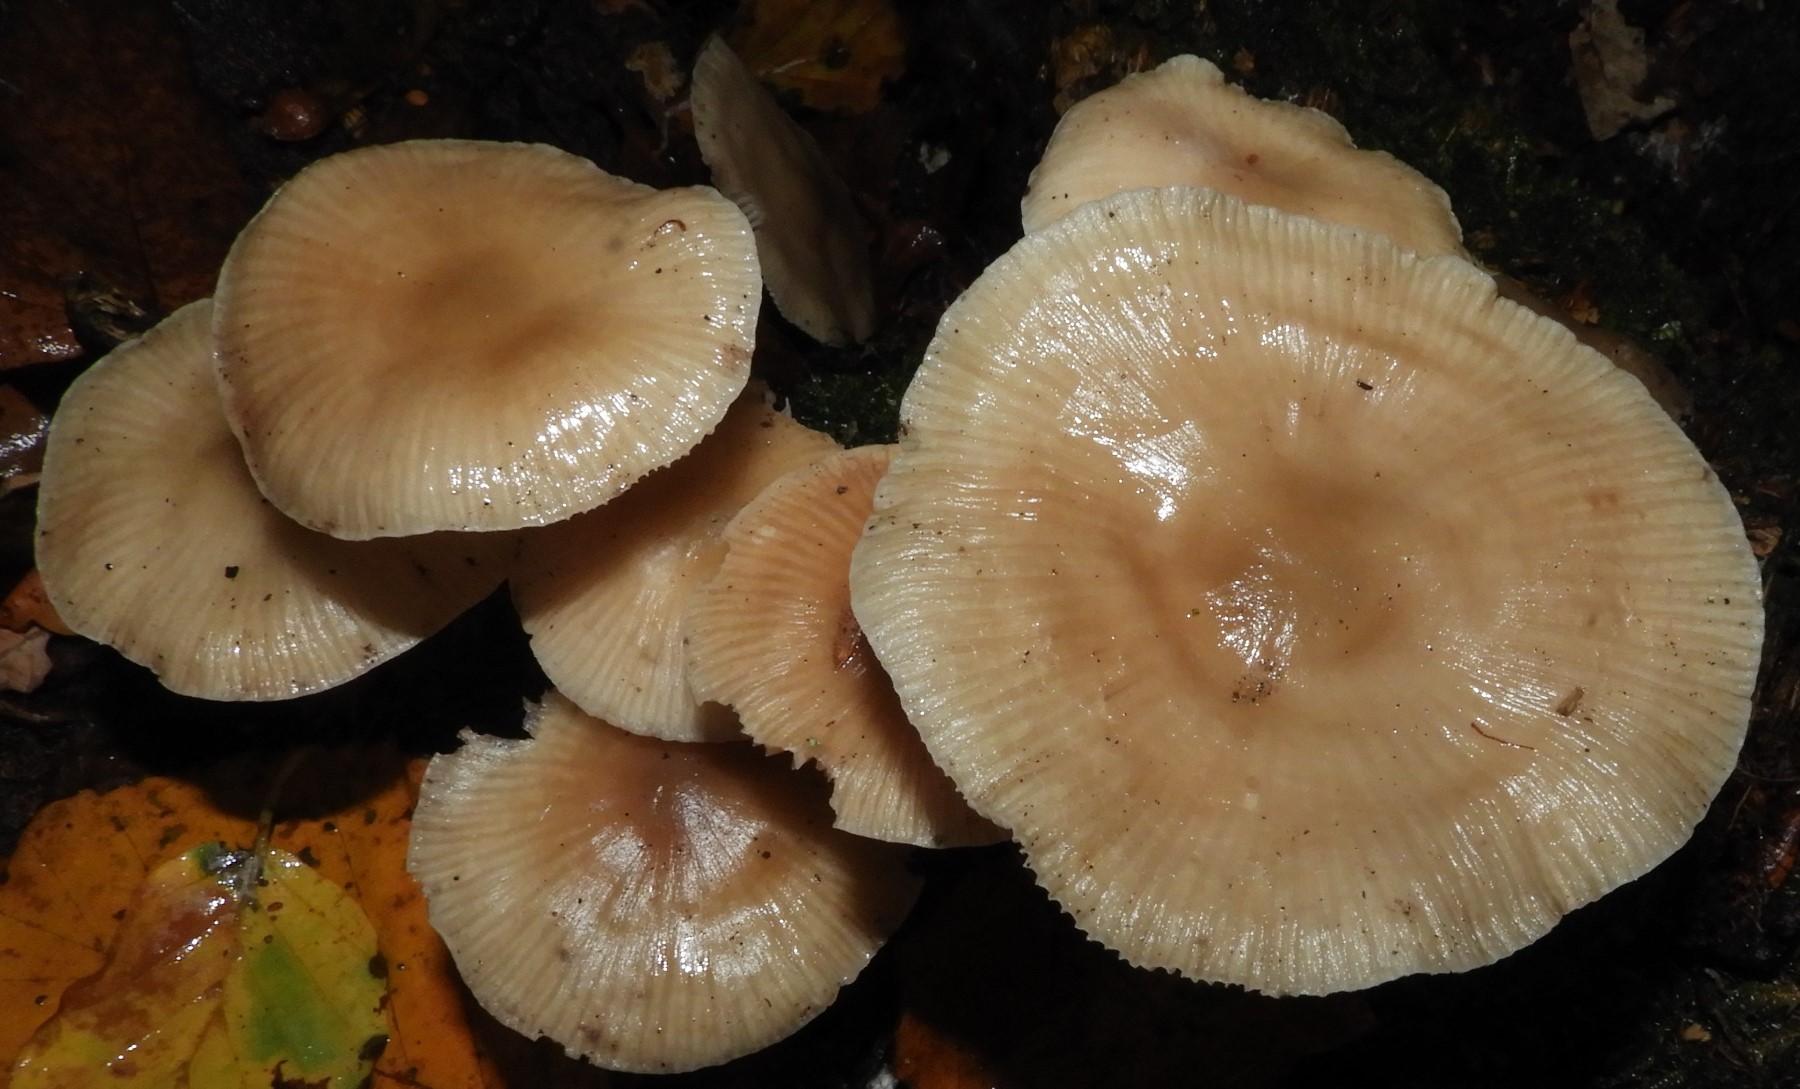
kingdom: Fungi
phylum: Basidiomycota
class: Agaricomycetes
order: Agaricales
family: Mycenaceae
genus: Mycena
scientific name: Mycena galericulata
